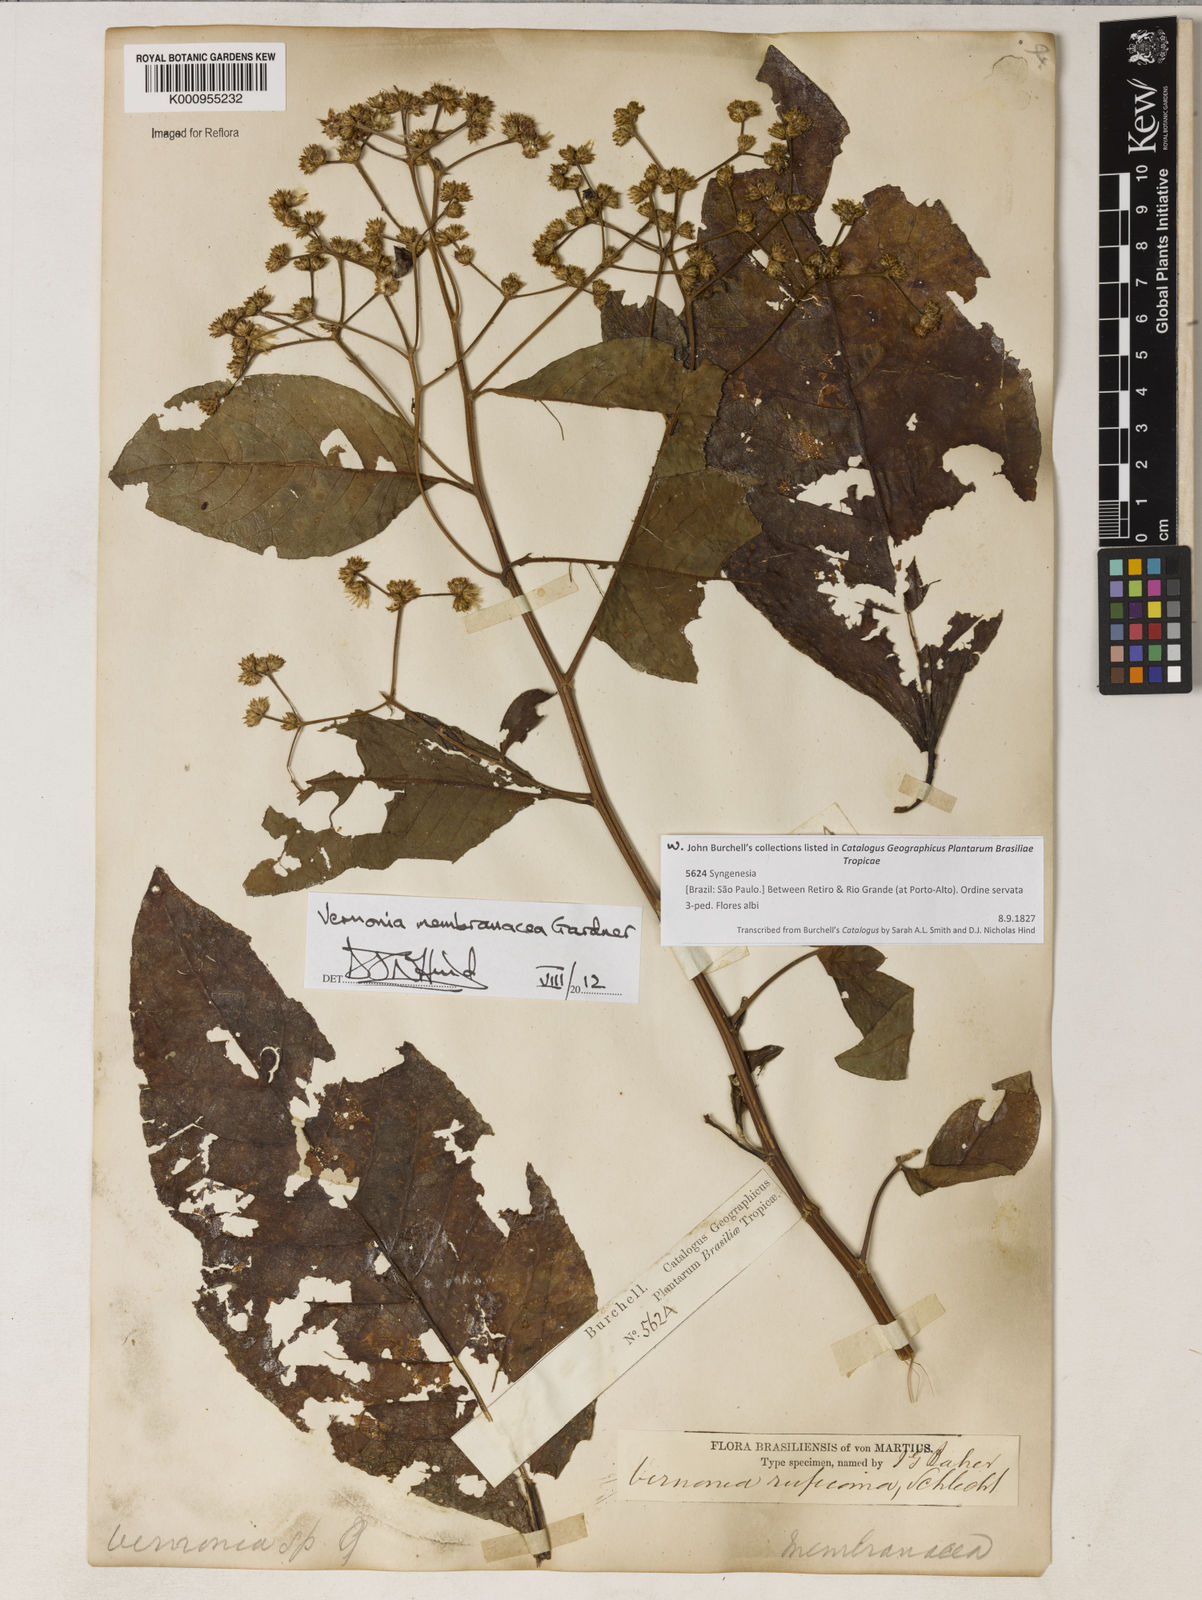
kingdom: Plantae
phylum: Tracheophyta
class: Magnoliopsida
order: Asterales
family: Asteraceae
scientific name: Asteraceae
